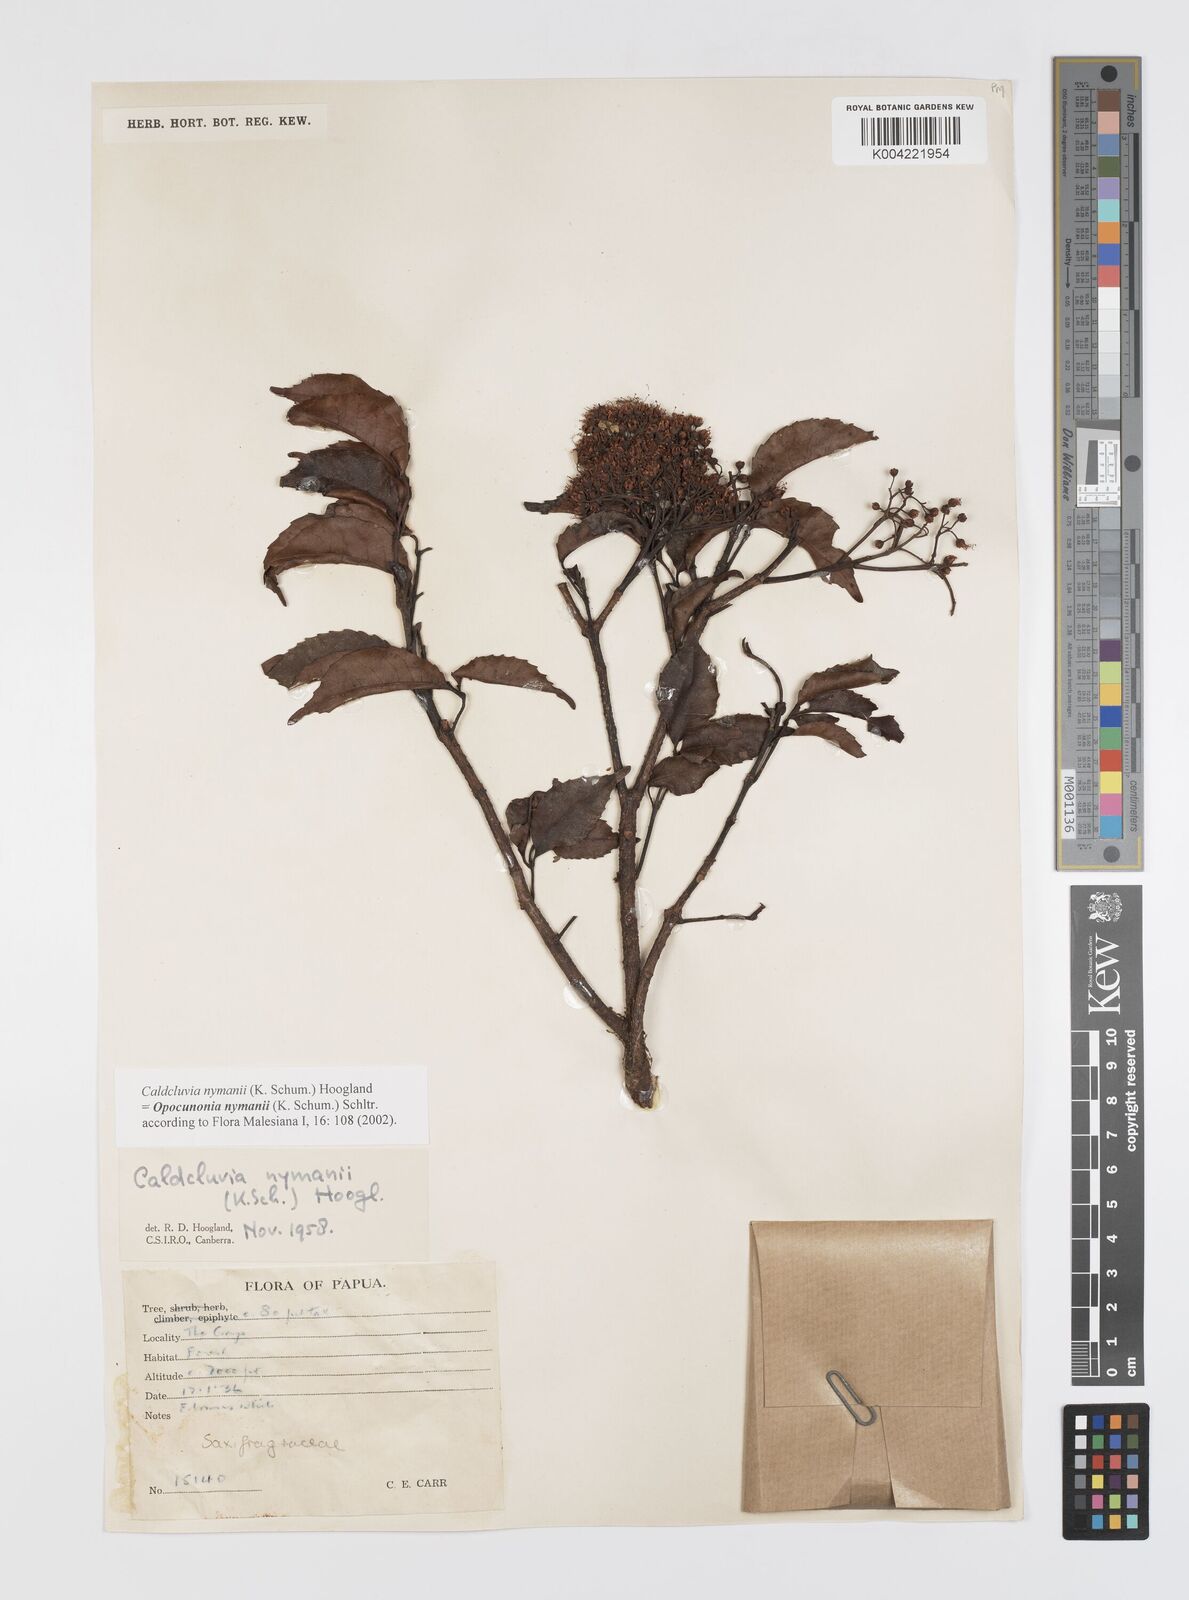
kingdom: Plantae
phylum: Tracheophyta
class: Magnoliopsida
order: Oxalidales
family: Cunoniaceae
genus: Opocunonia
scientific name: Opocunonia nymanii
